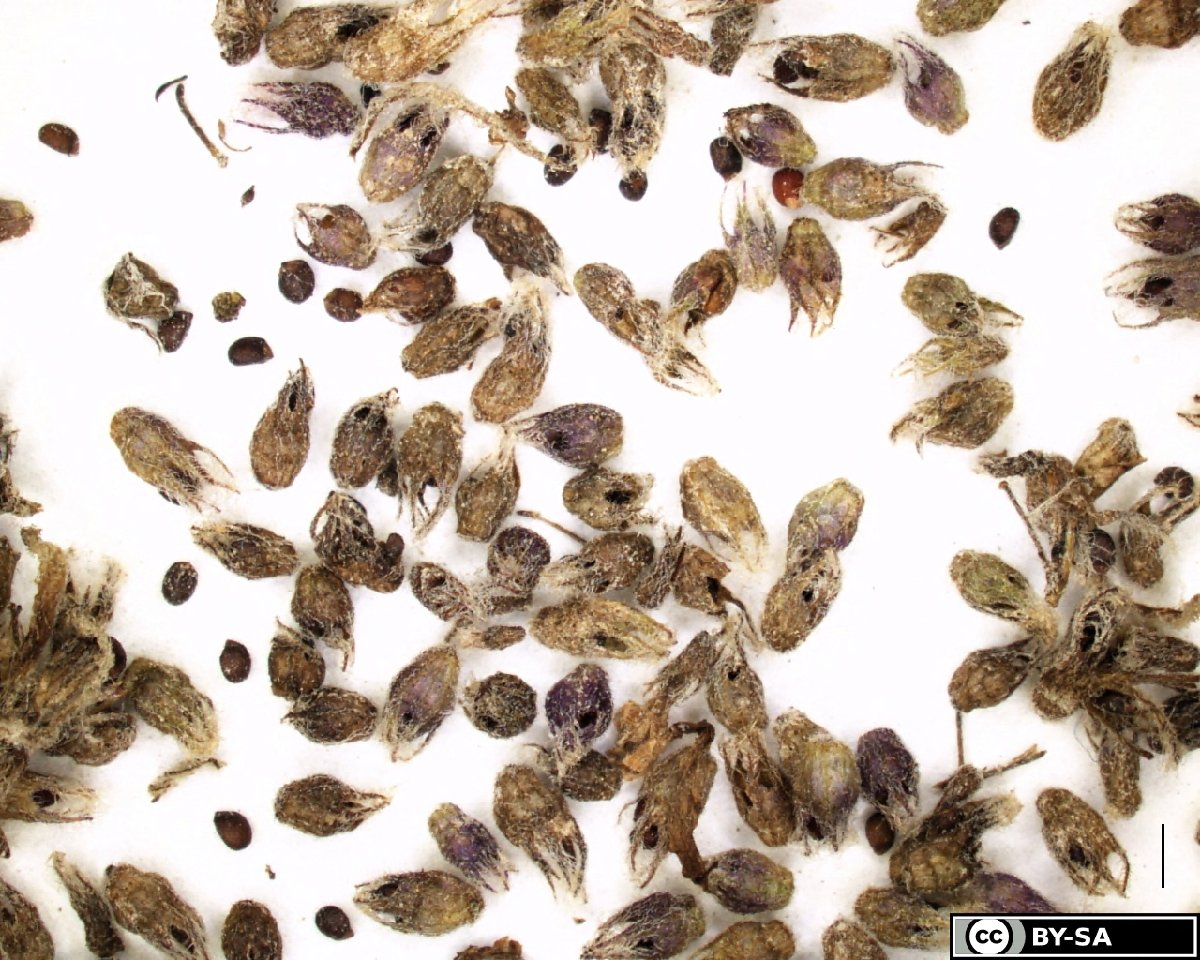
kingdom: Plantae
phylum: Tracheophyta
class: Magnoliopsida
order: Lamiales
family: Lamiaceae
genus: Mentha
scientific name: Mentha longifolia
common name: Horse mint
